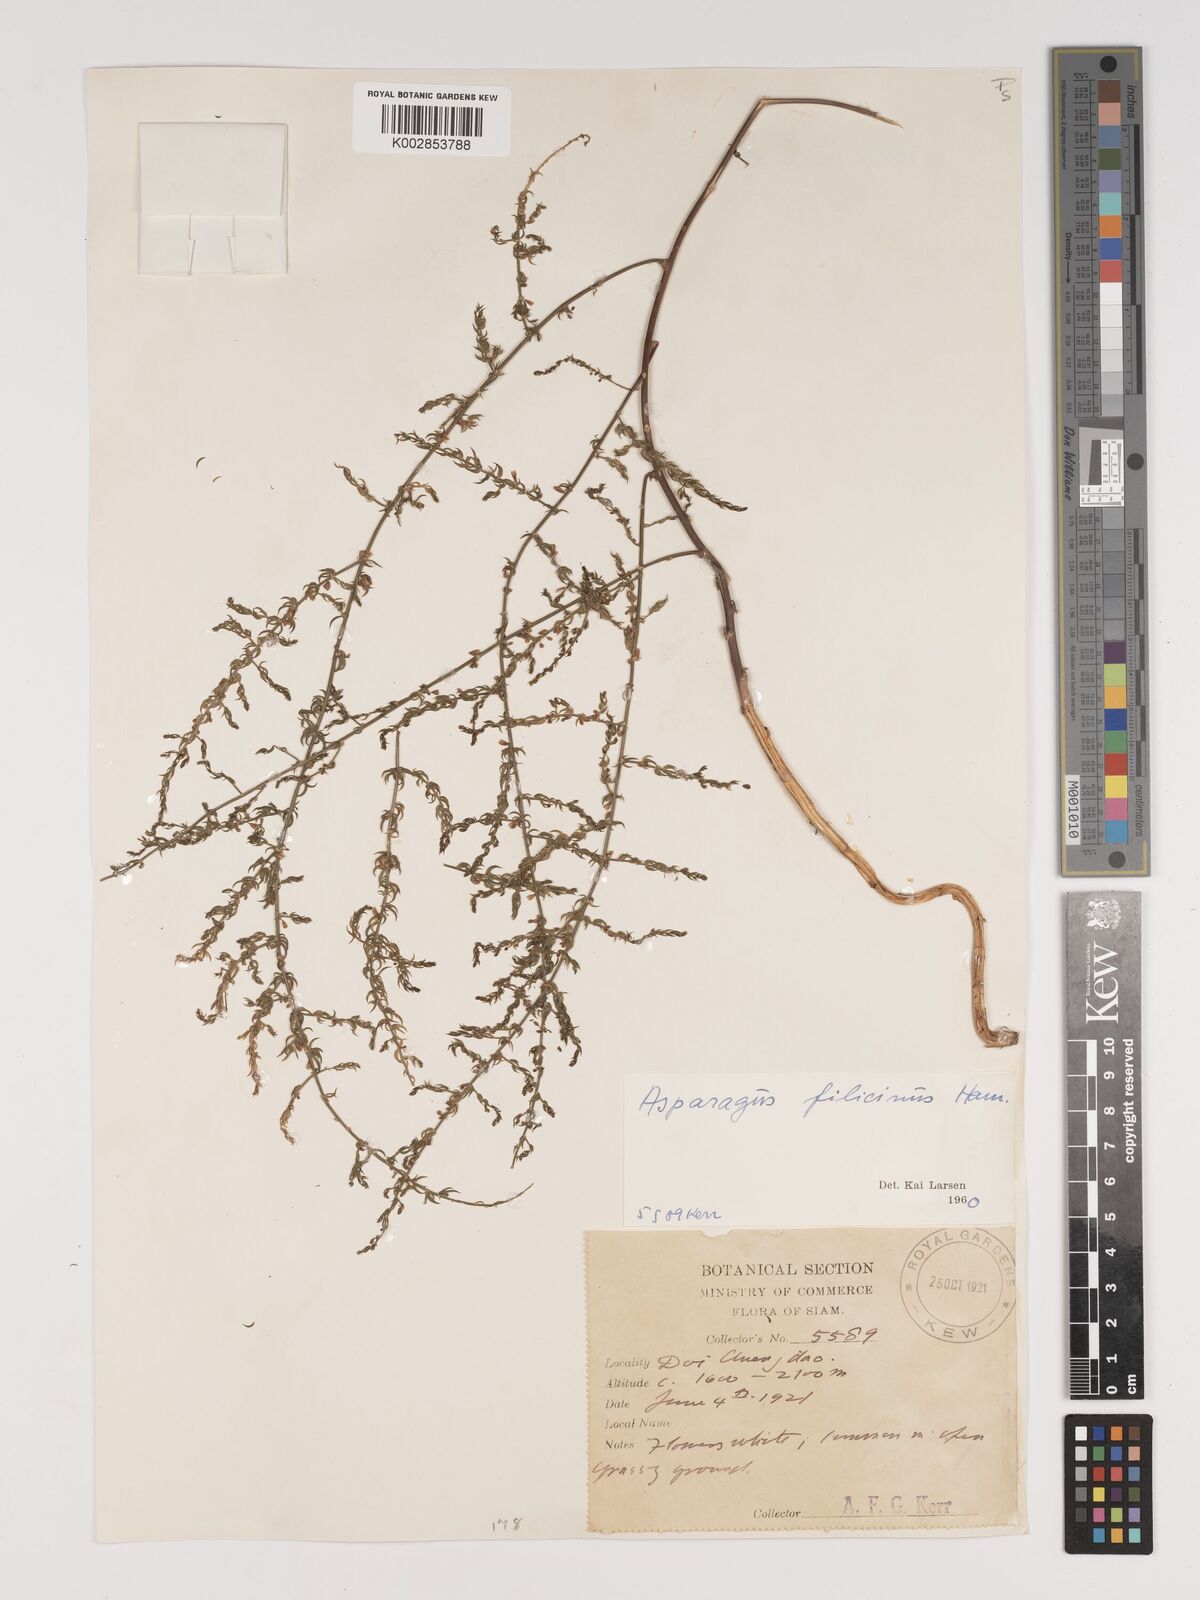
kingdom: Plantae
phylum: Tracheophyta
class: Liliopsida
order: Asparagales
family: Asparagaceae
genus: Asparagus
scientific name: Asparagus filicinus
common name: Fern asparagus
